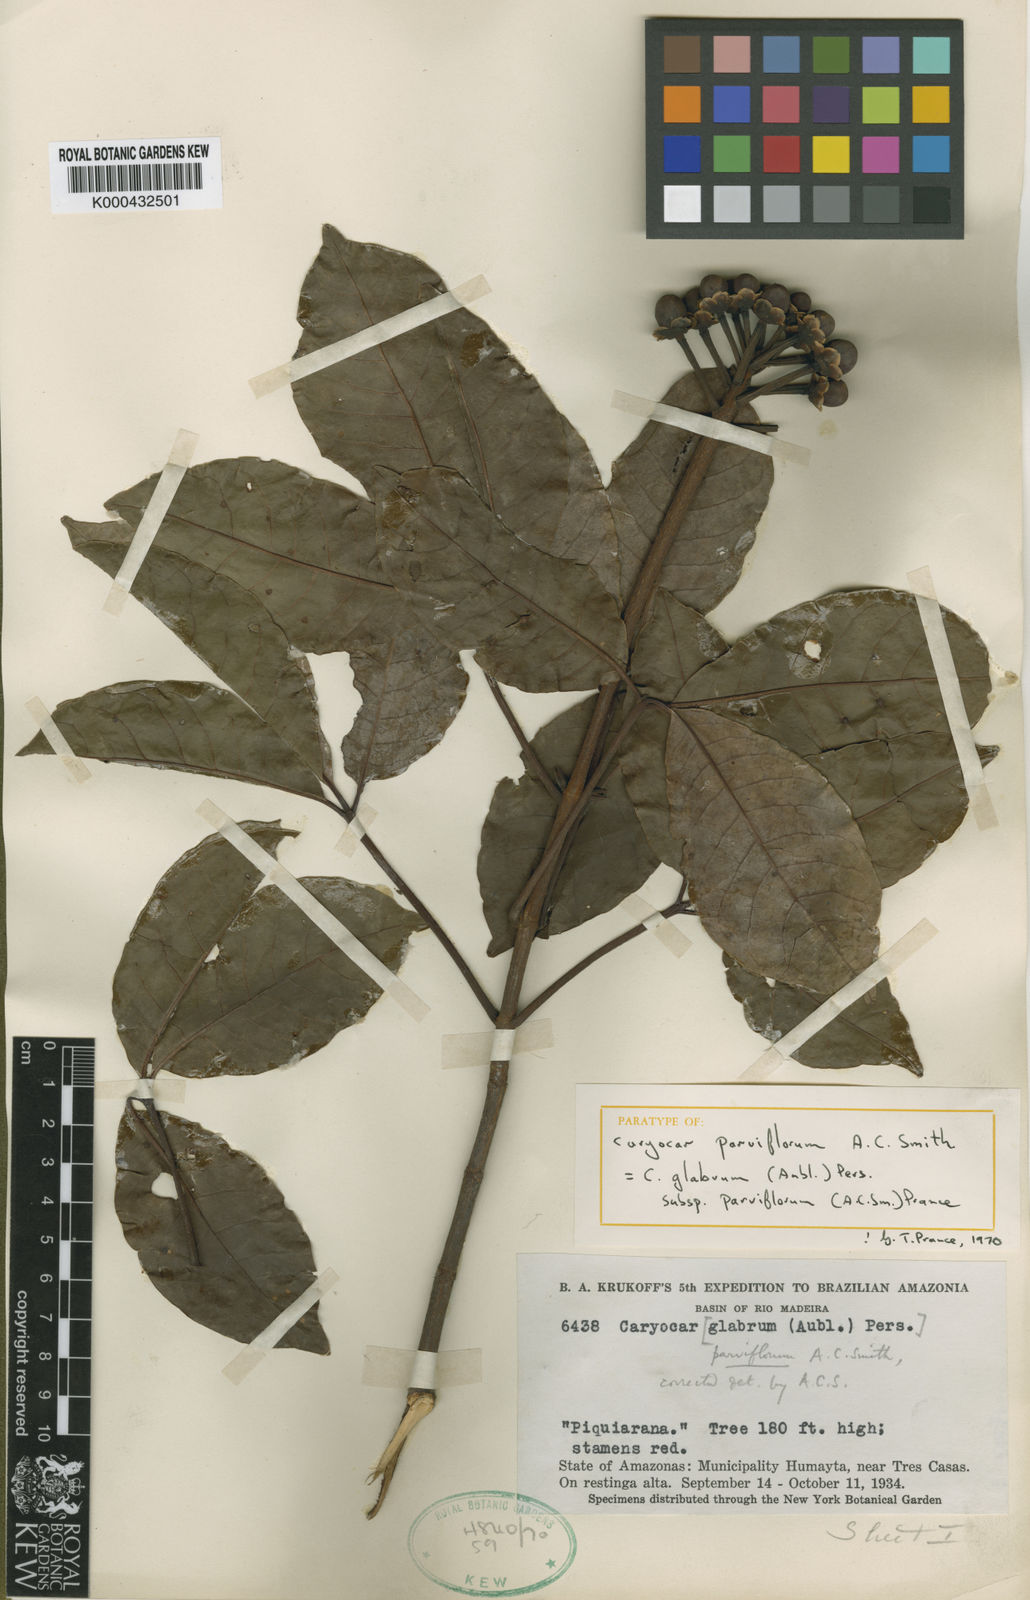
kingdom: Plantae
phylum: Tracheophyta
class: Magnoliopsida
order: Malpighiales
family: Caryocaraceae
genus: Caryocar
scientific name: Caryocar glabrum
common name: Bat's souari
